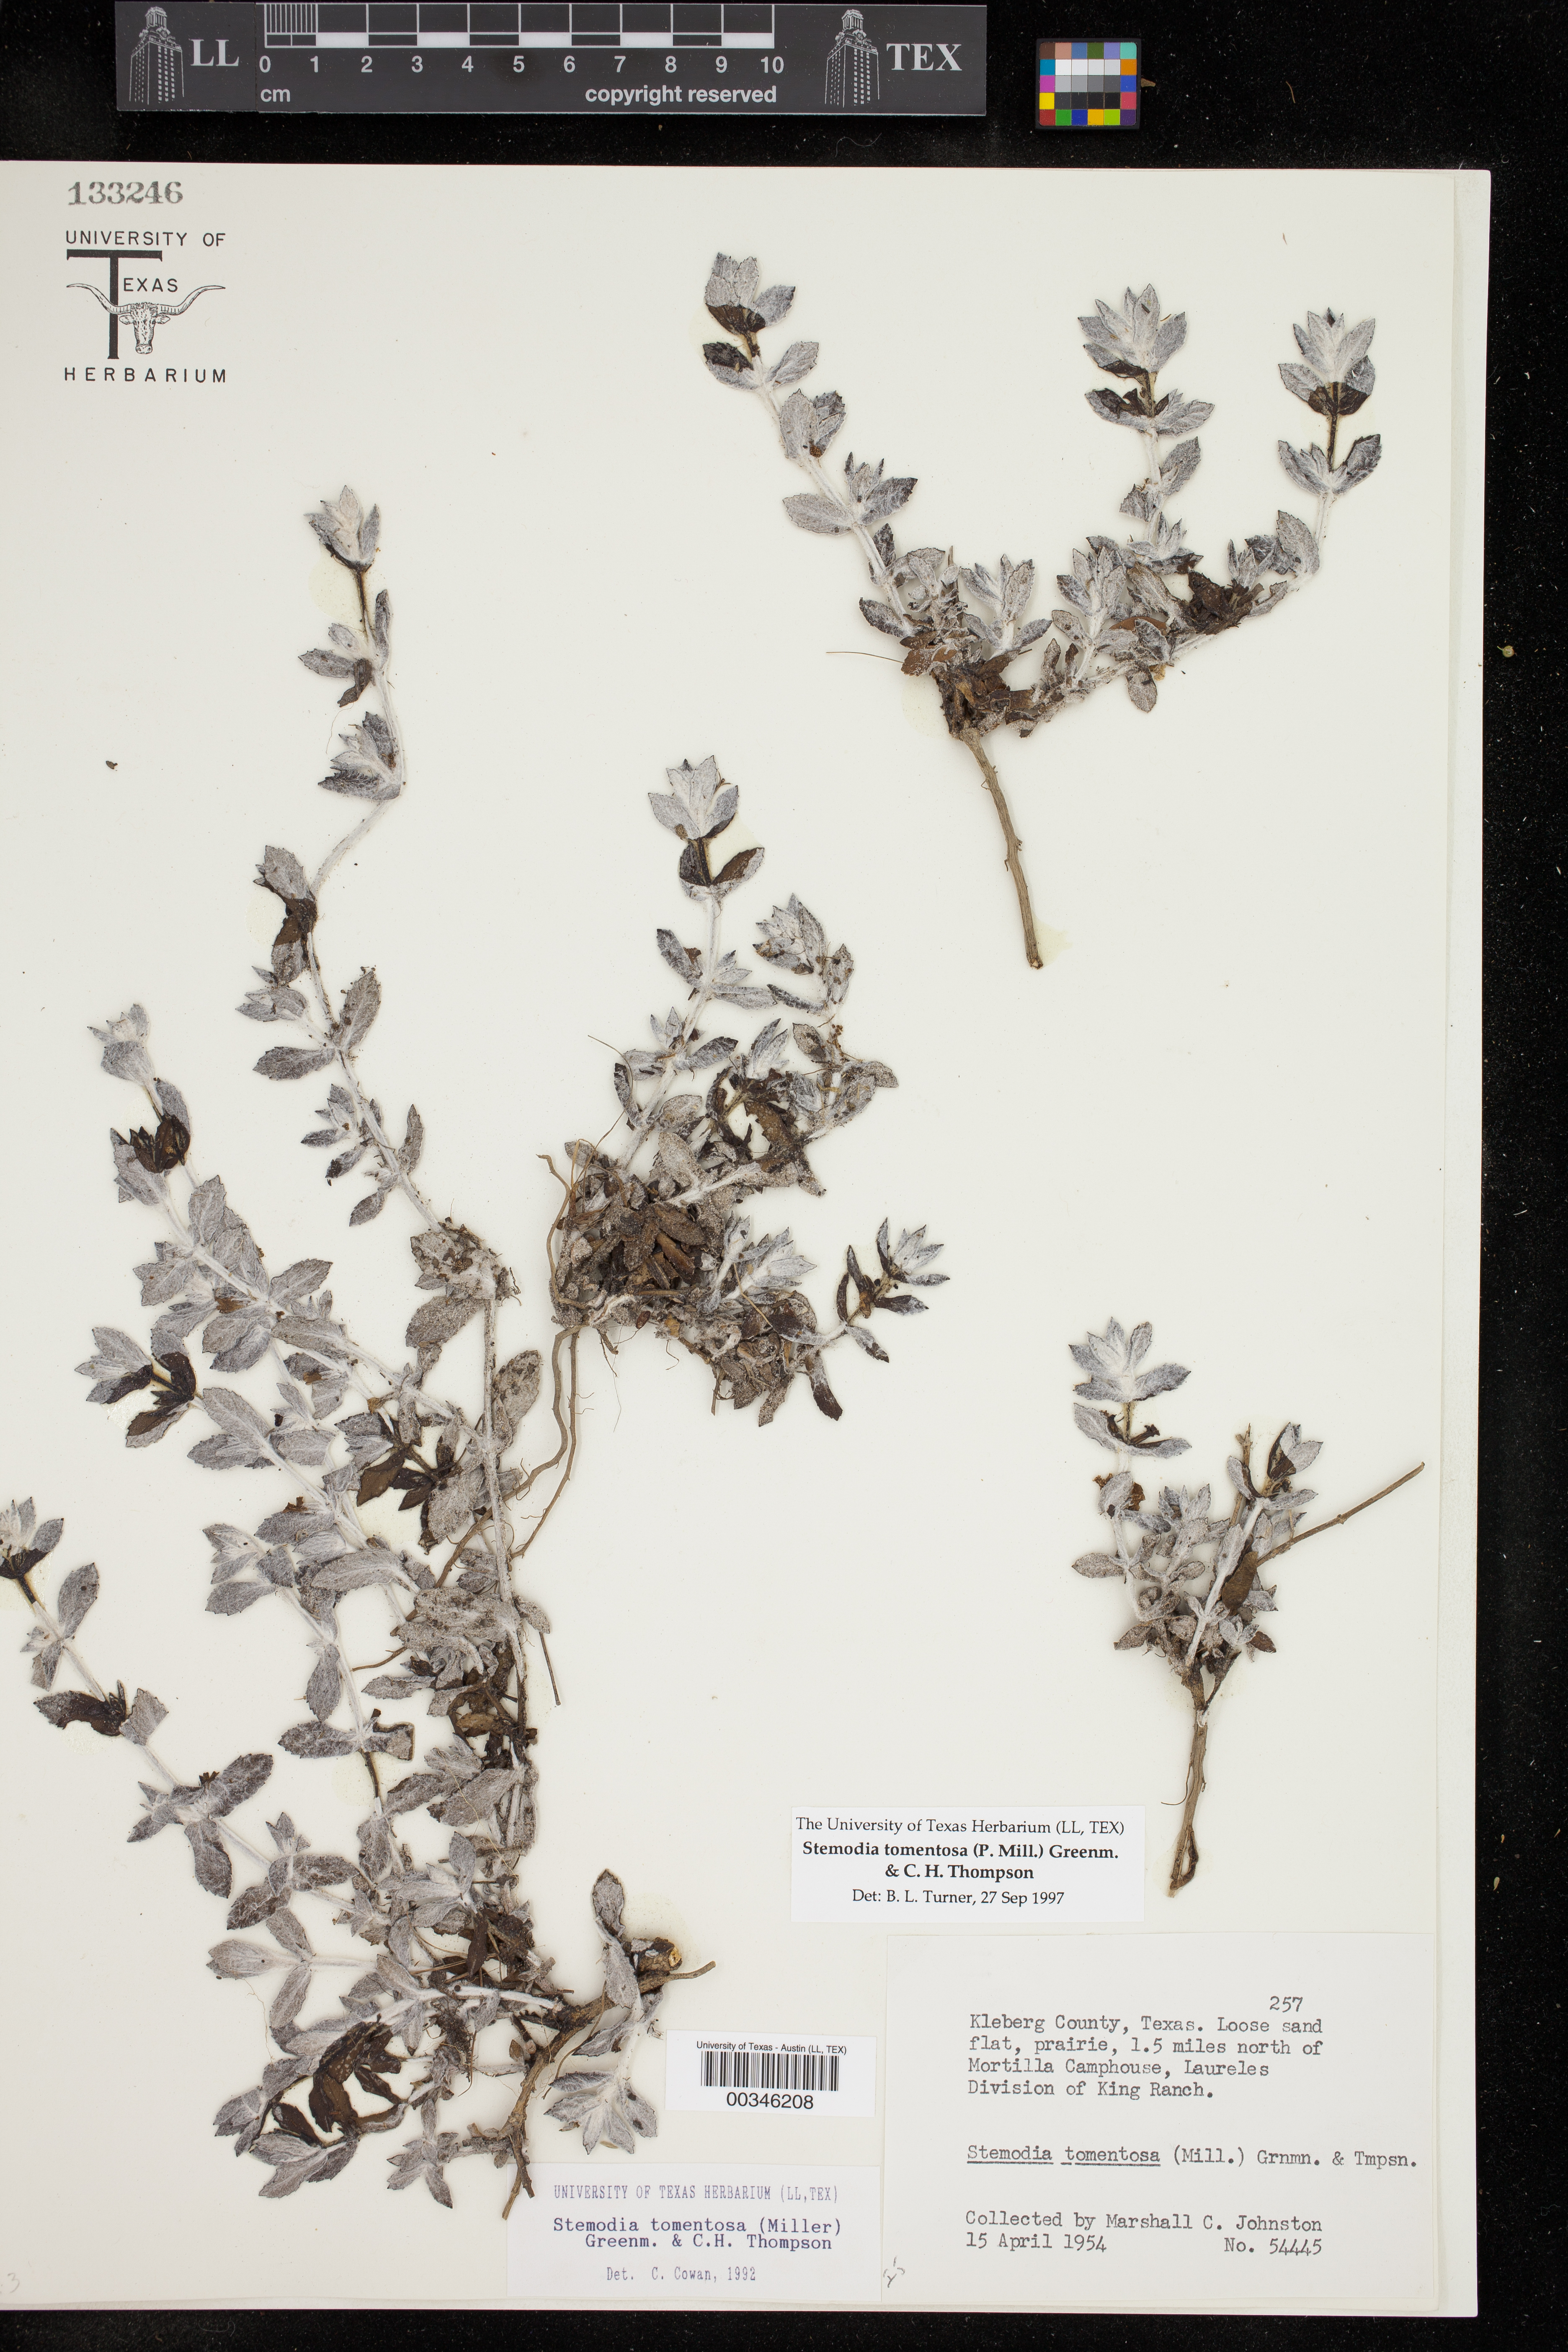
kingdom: Plantae
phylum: Tracheophyta
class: Magnoliopsida
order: Lamiales
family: Plantaginaceae
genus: Stemodia
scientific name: Stemodia lanata
